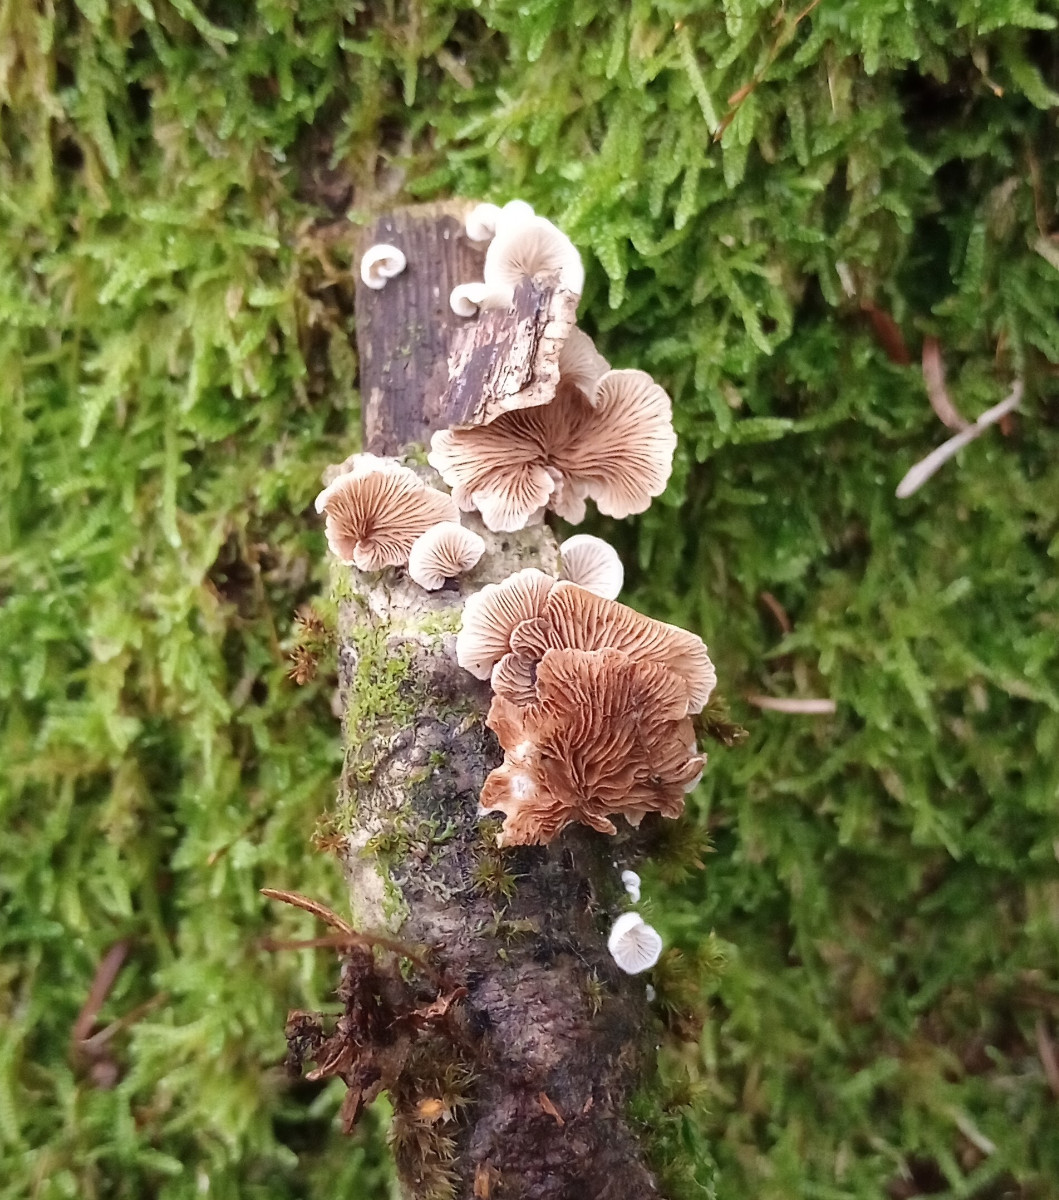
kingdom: Fungi
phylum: Basidiomycota
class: Agaricomycetes
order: Agaricales
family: Crepidotaceae
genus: Crepidotus
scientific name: Crepidotus
